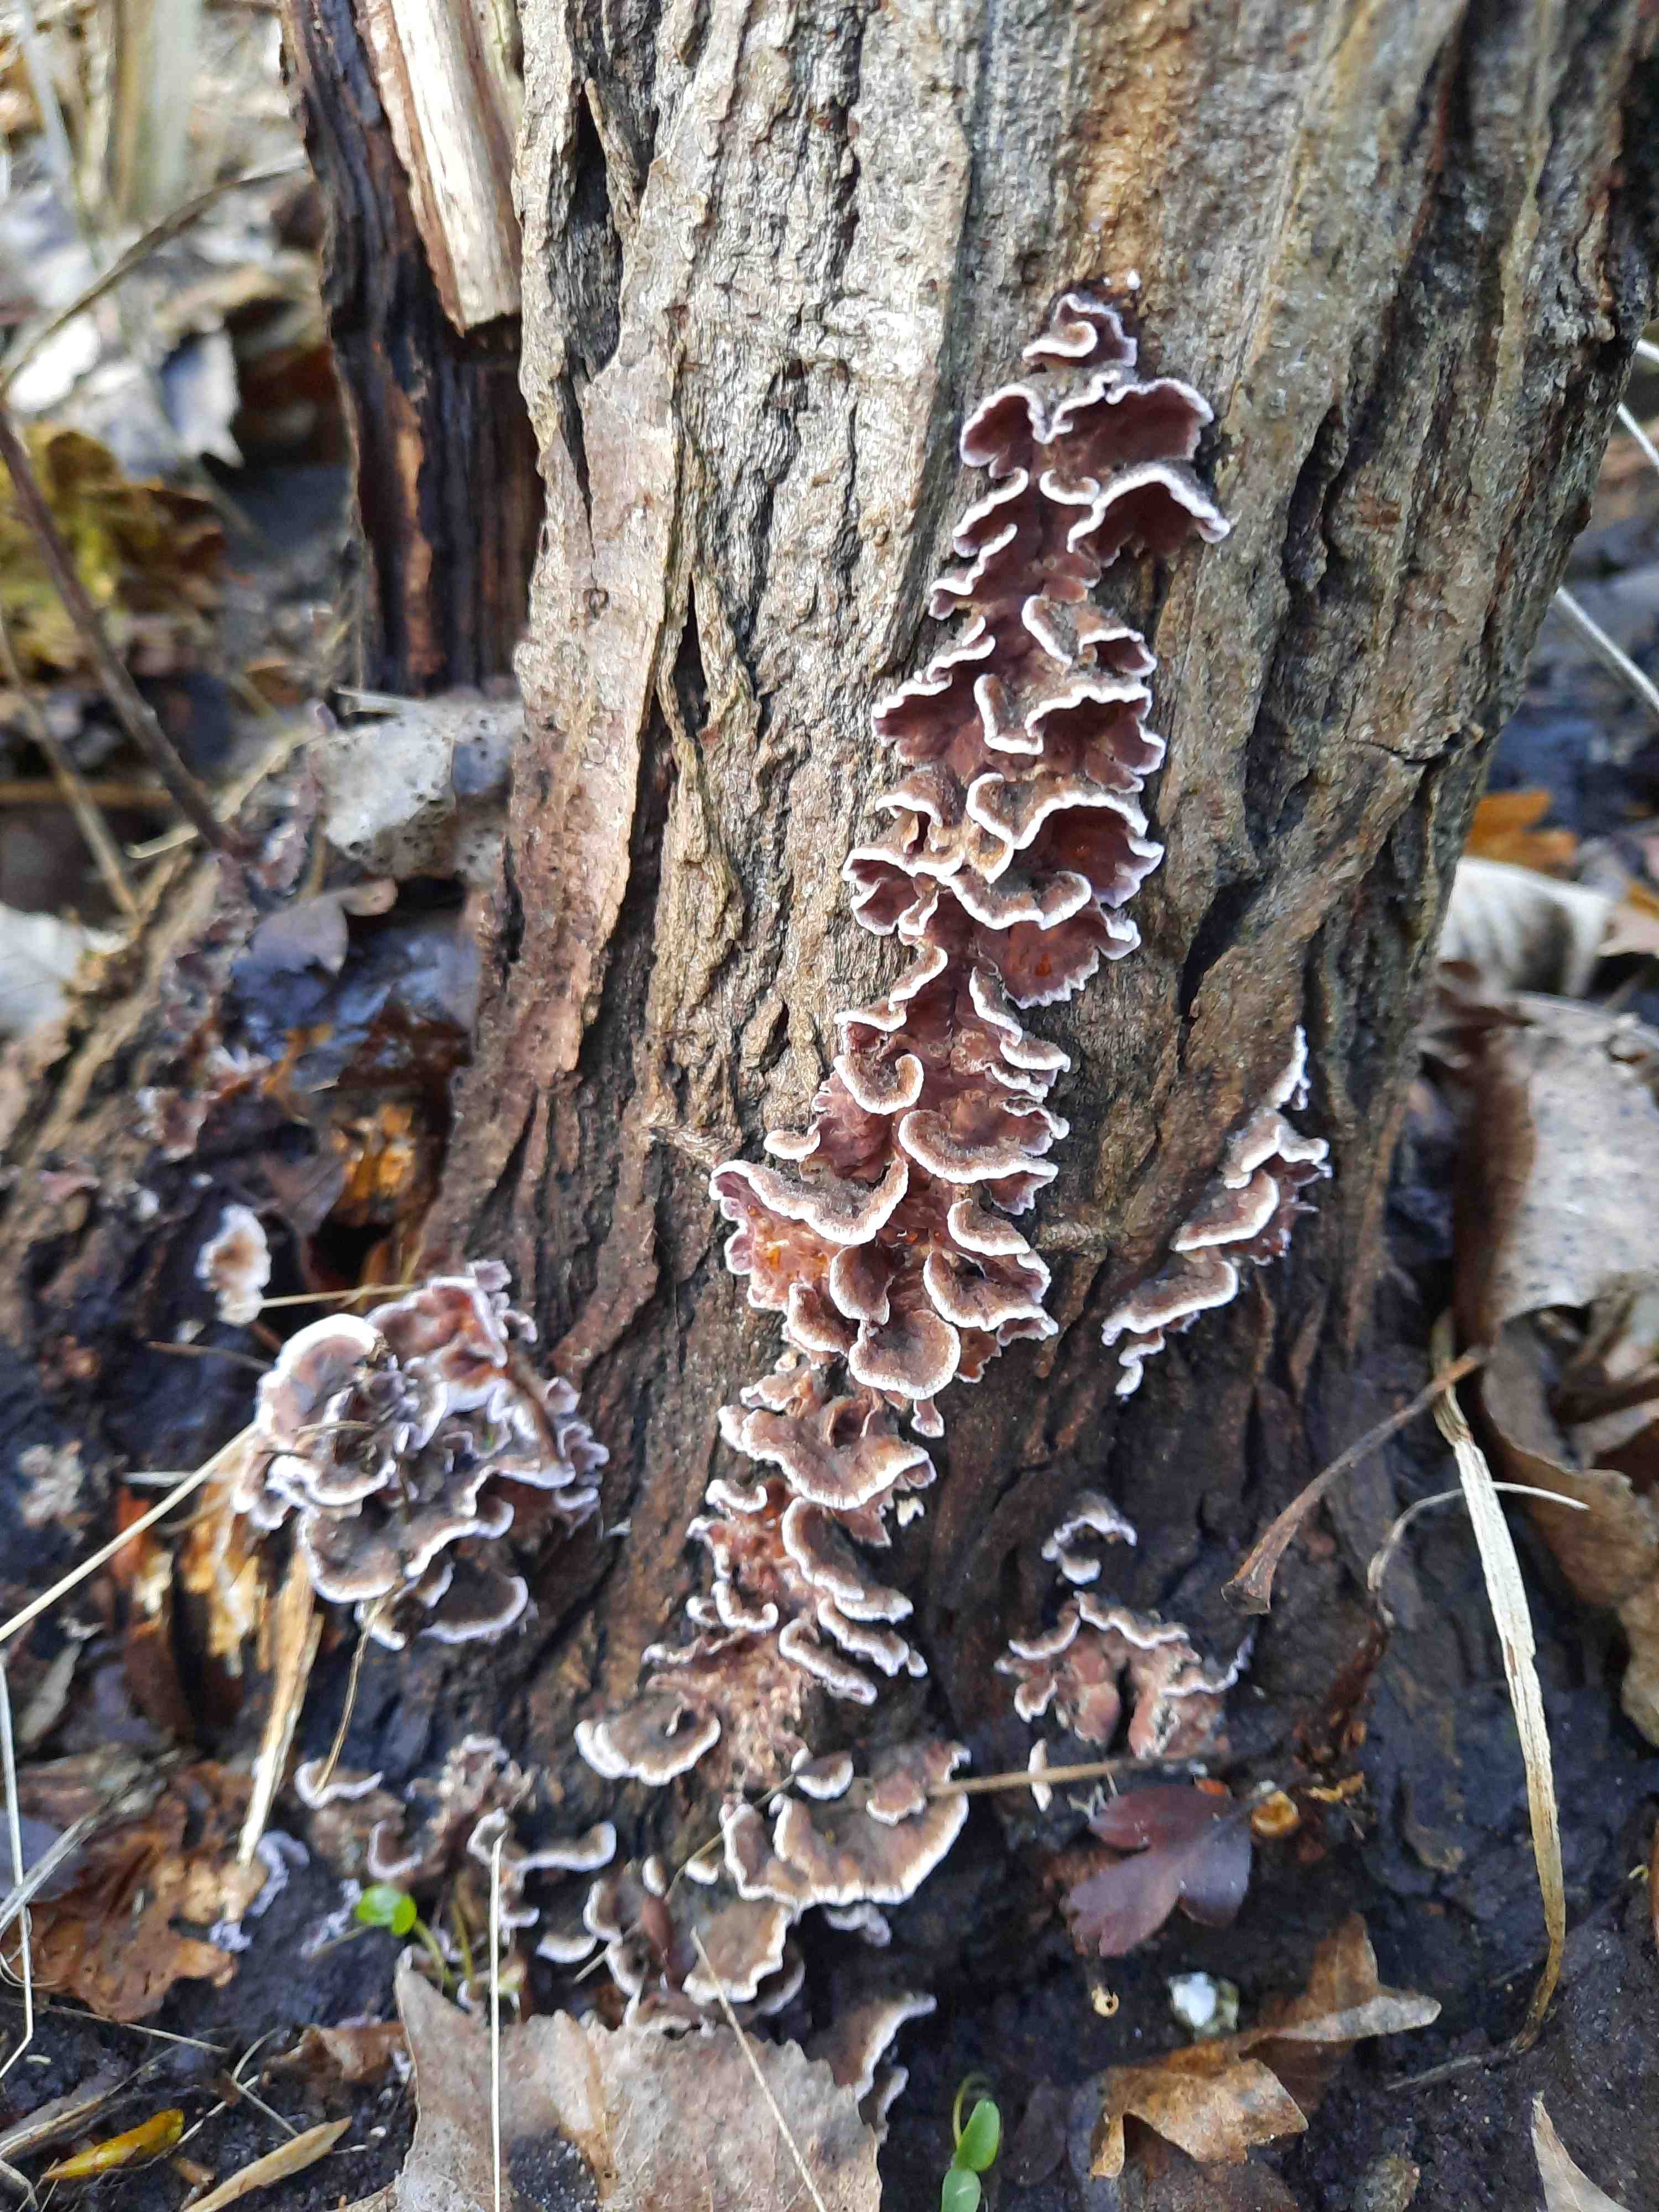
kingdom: Fungi
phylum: Basidiomycota
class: Agaricomycetes
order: Agaricales
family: Cyphellaceae
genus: Chondrostereum
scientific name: Chondrostereum purpureum
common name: purpurlædersvamp
